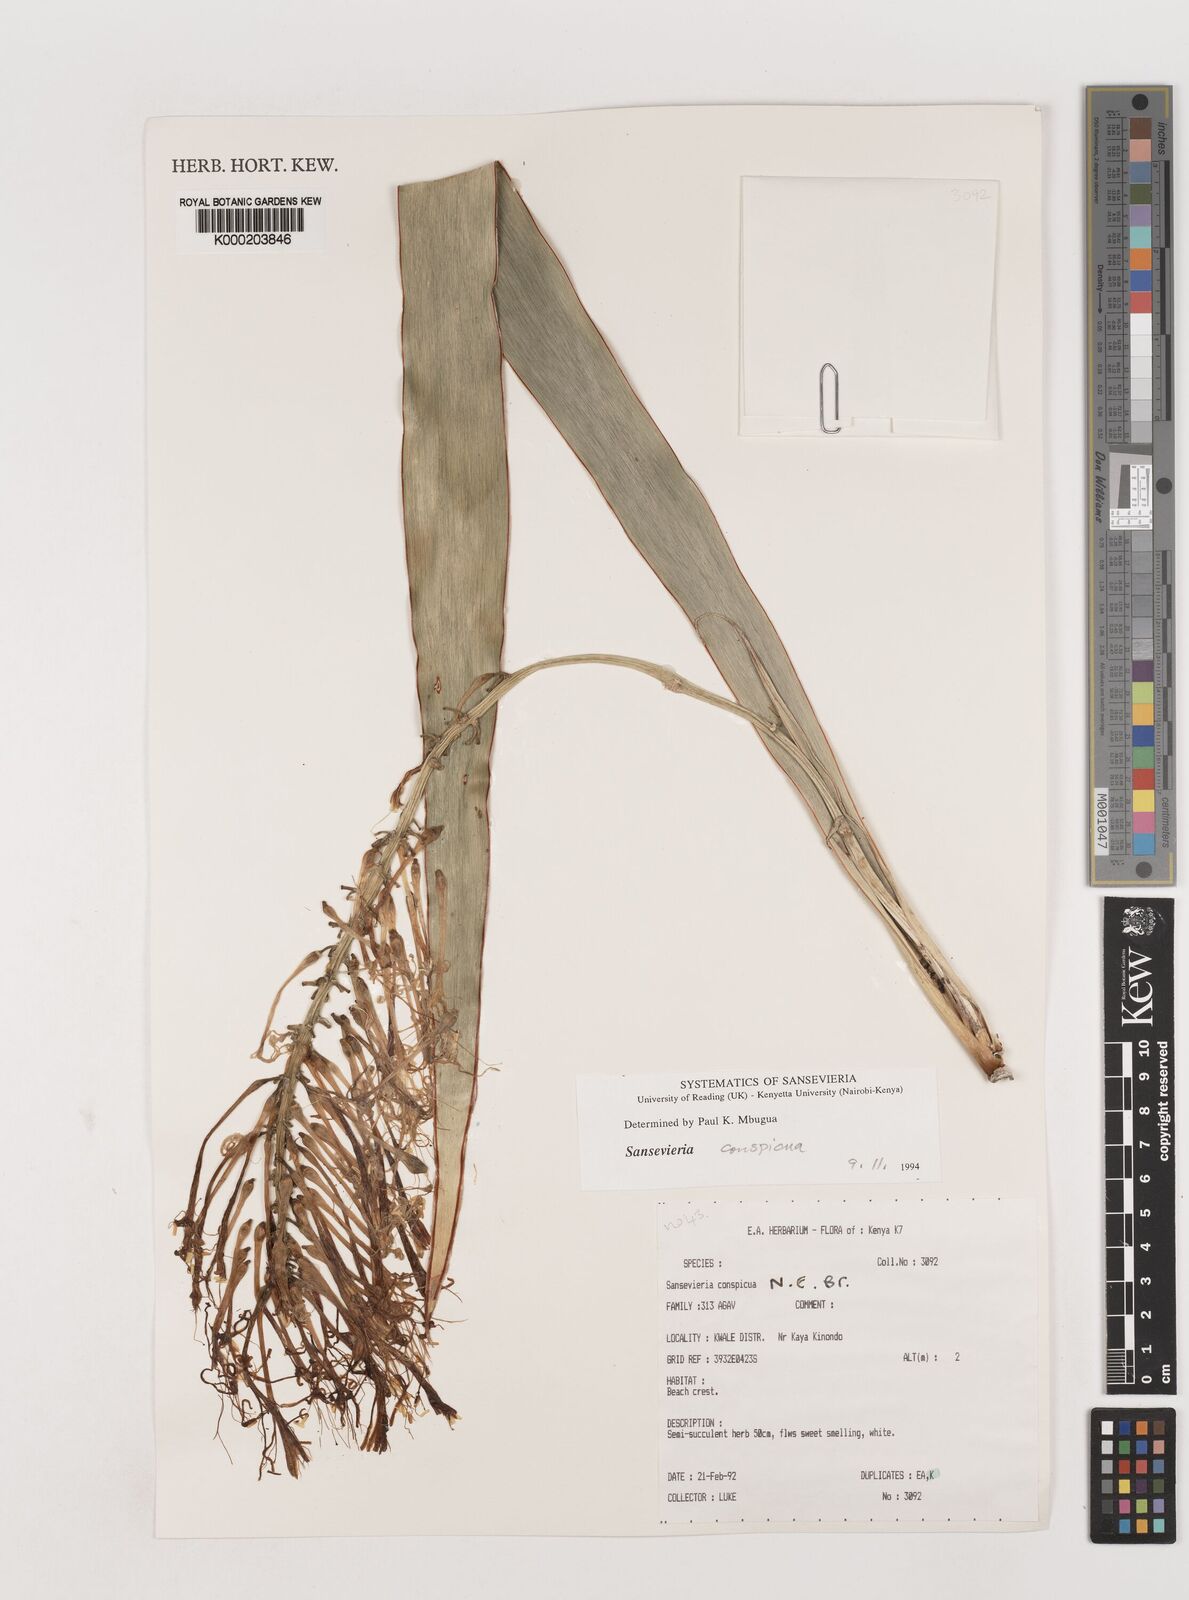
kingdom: Plantae
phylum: Tracheophyta
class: Liliopsida
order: Asparagales
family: Asparagaceae
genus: Dracaena
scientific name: Dracaena conspicua
